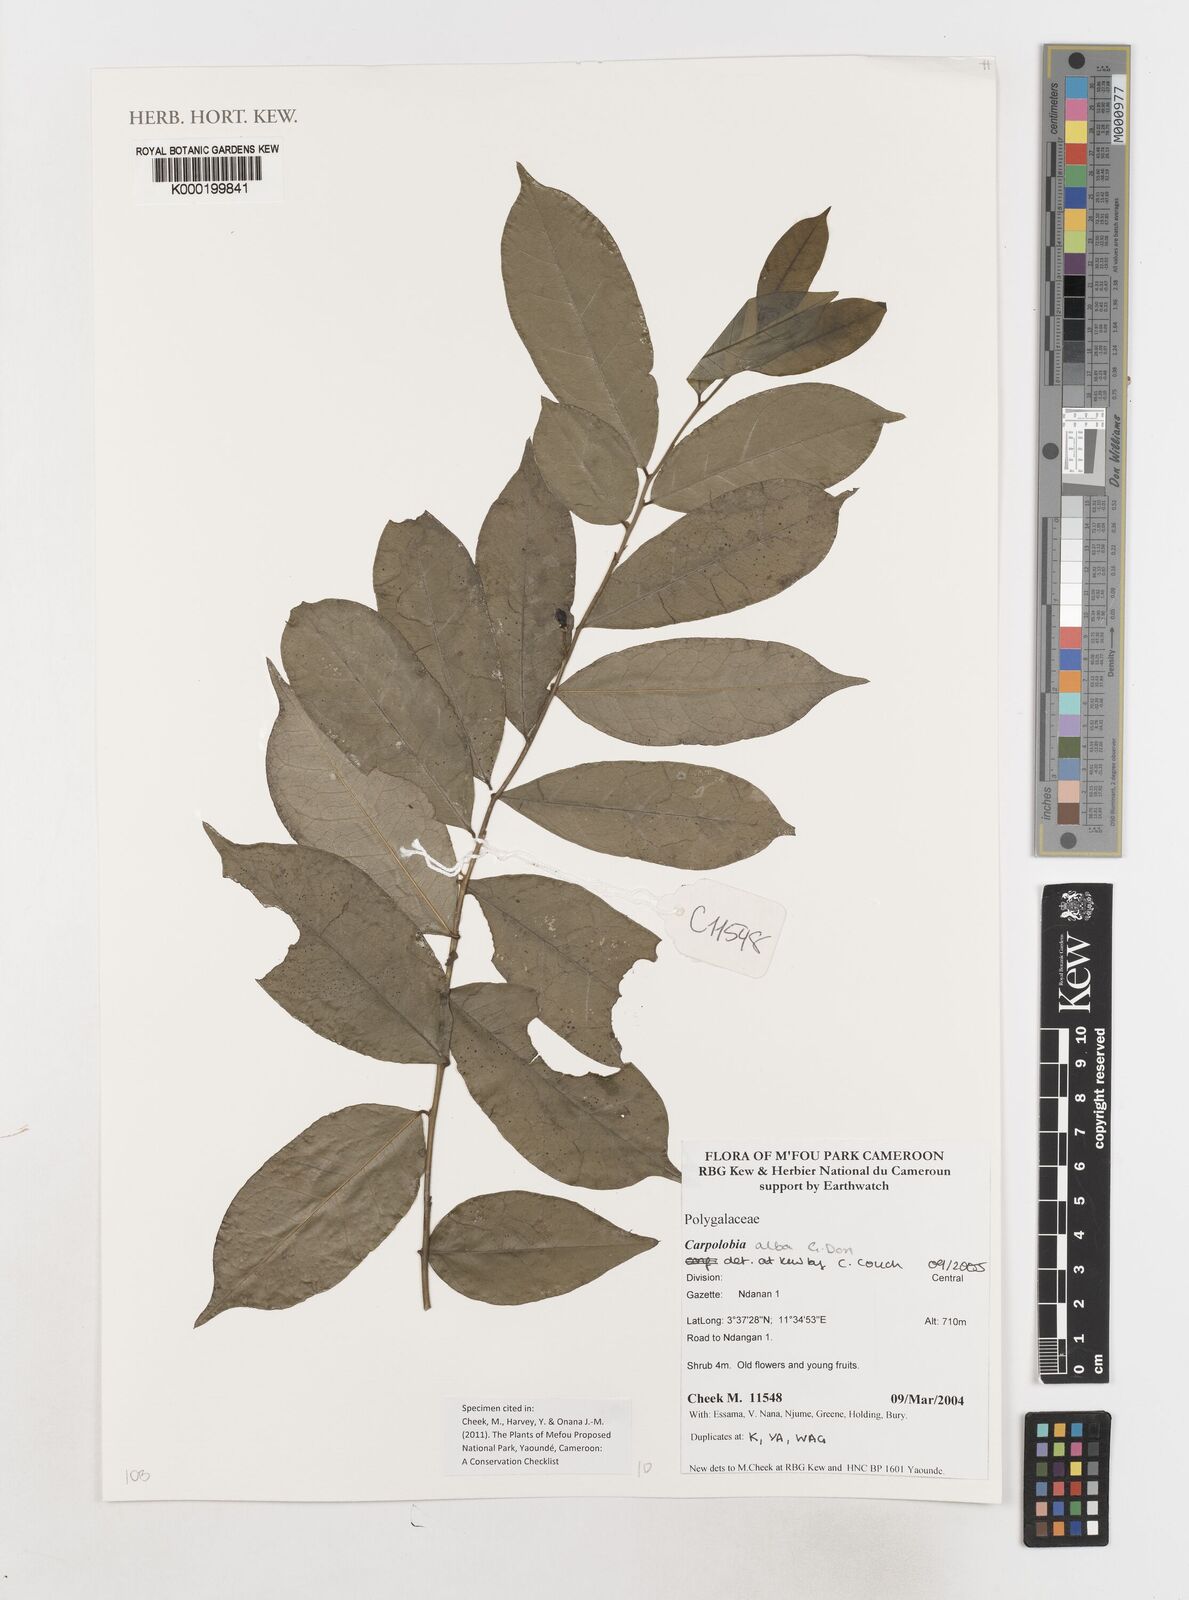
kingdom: Plantae
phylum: Tracheophyta
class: Magnoliopsida
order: Fabales
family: Polygalaceae
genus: Carpolobia
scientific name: Carpolobia alba
